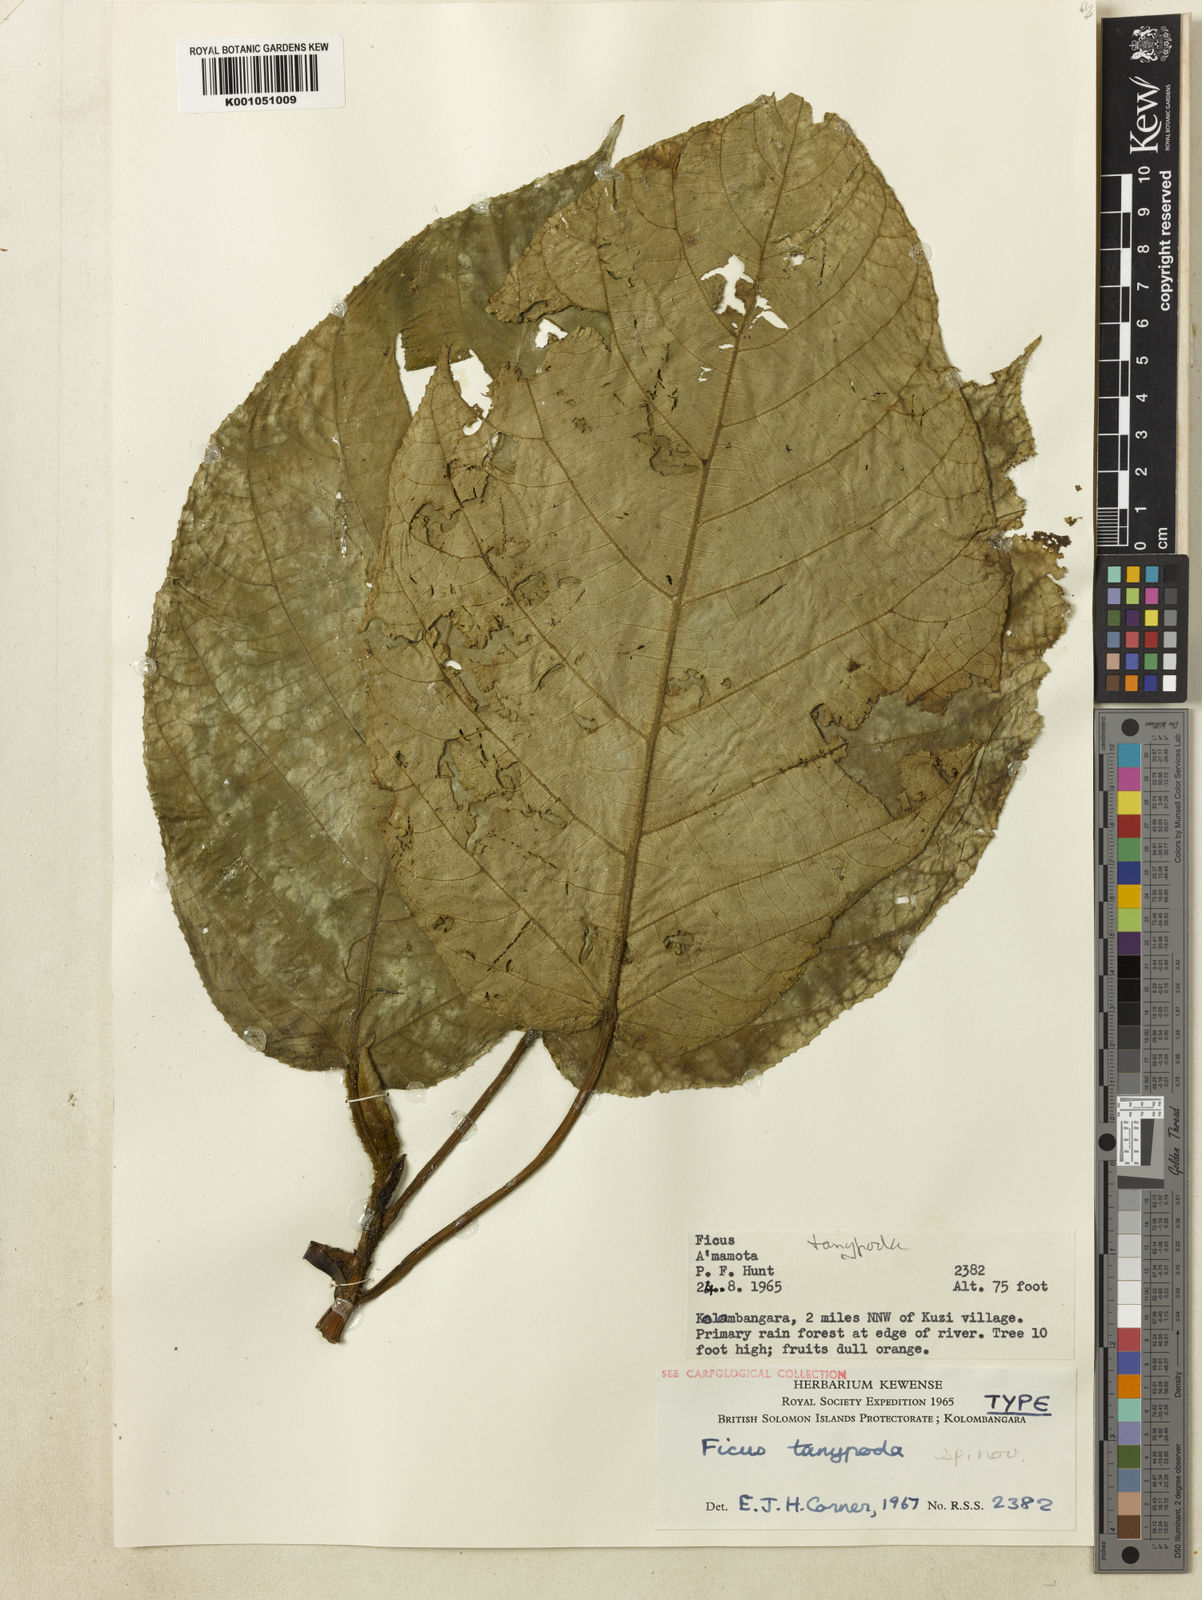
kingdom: Plantae
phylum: Tracheophyta
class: Magnoliopsida
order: Rosales
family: Moraceae
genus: Ficus
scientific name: Ficus tanypoda
